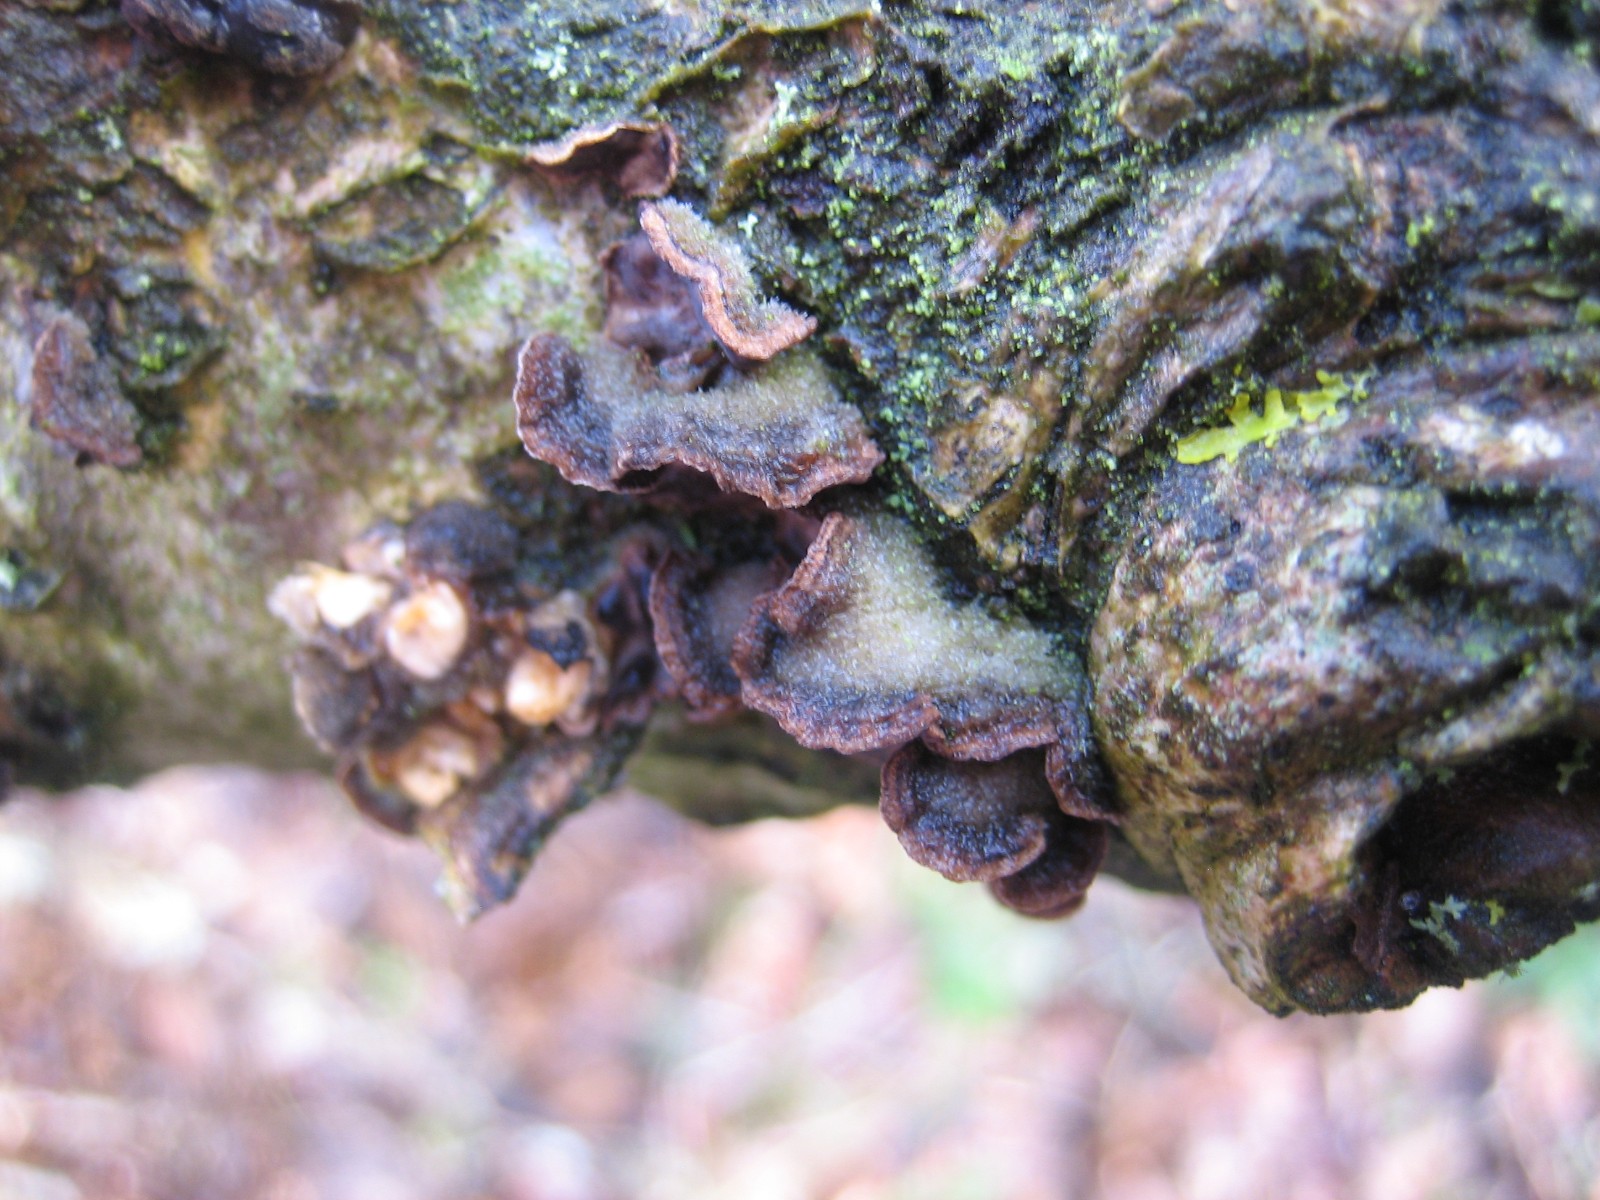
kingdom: Fungi
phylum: Basidiomycota
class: Agaricomycetes
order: Agaricales
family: Cyphellaceae
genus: Chondrostereum
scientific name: Chondrostereum purpureum
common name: purpurlædersvamp
